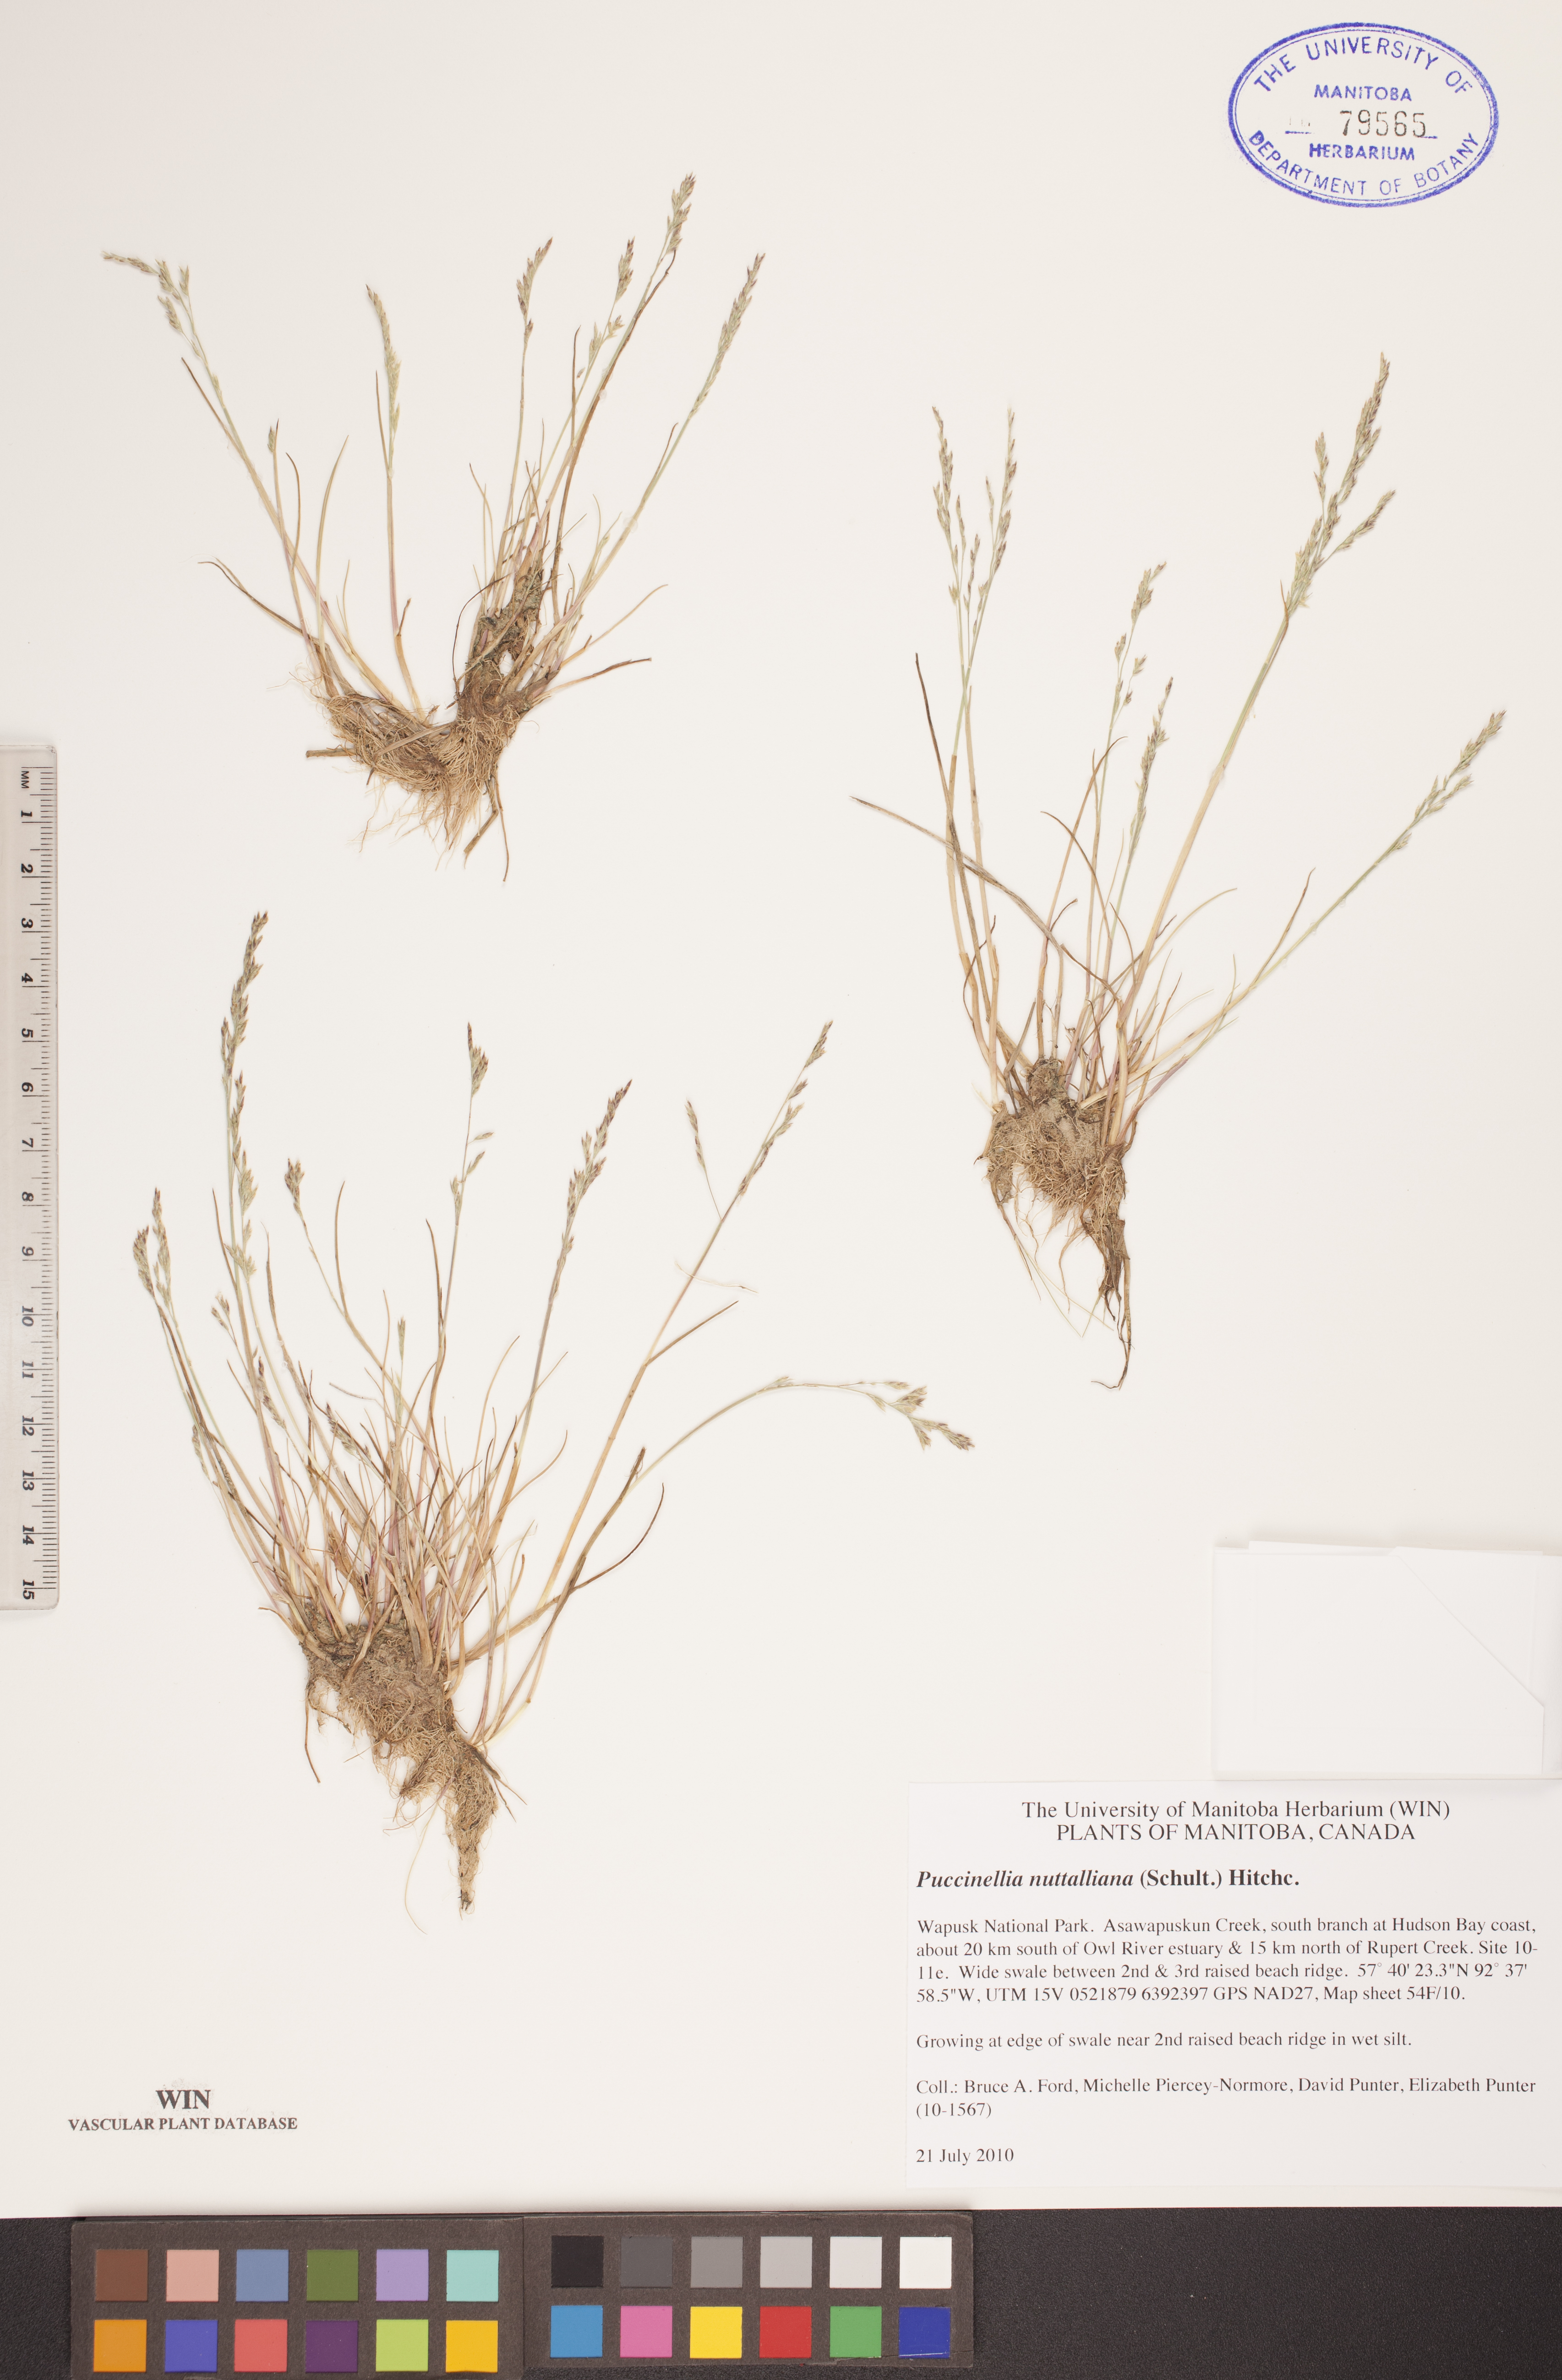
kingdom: Plantae
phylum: Tracheophyta
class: Liliopsida
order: Poales
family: Poaceae
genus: Puccinellia
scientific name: Puccinellia nuttalliana
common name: Nuttall's alkali grass
